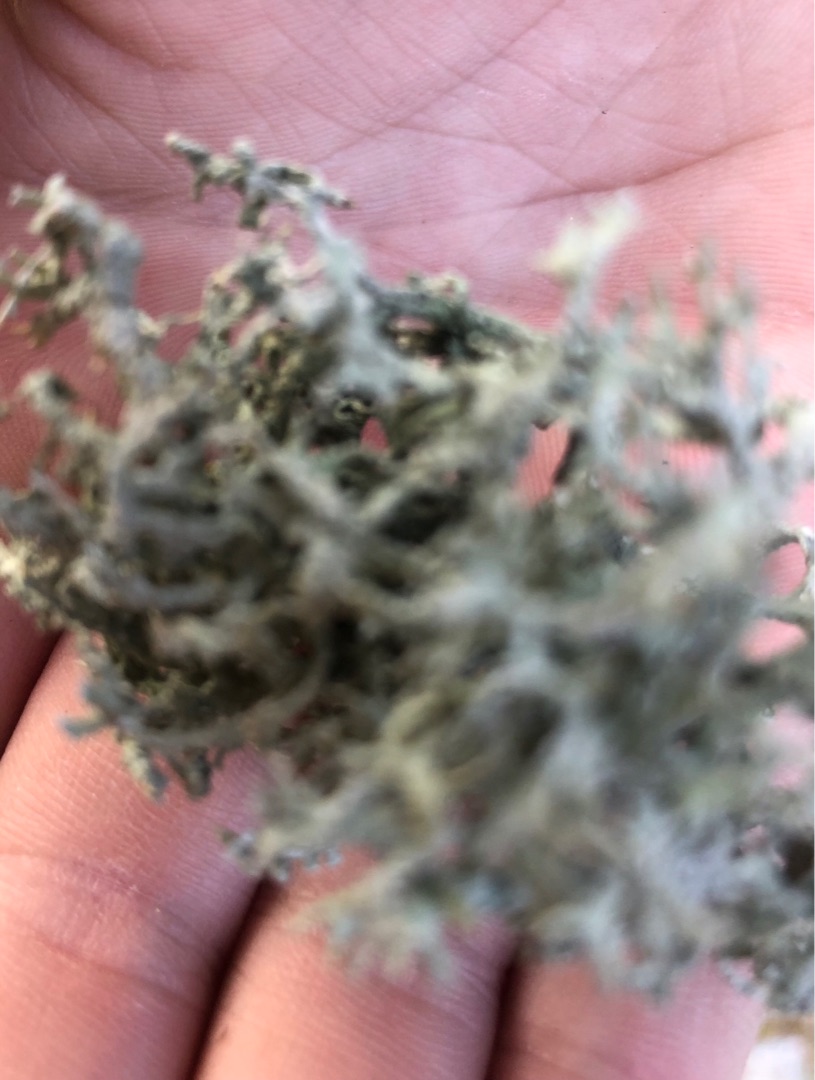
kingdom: Fungi
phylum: Ascomycota
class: Lecanoromycetes
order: Lecanorales
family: Parmeliaceae
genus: Evernia
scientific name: Evernia prunastri
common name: Almindelig slåenlav
